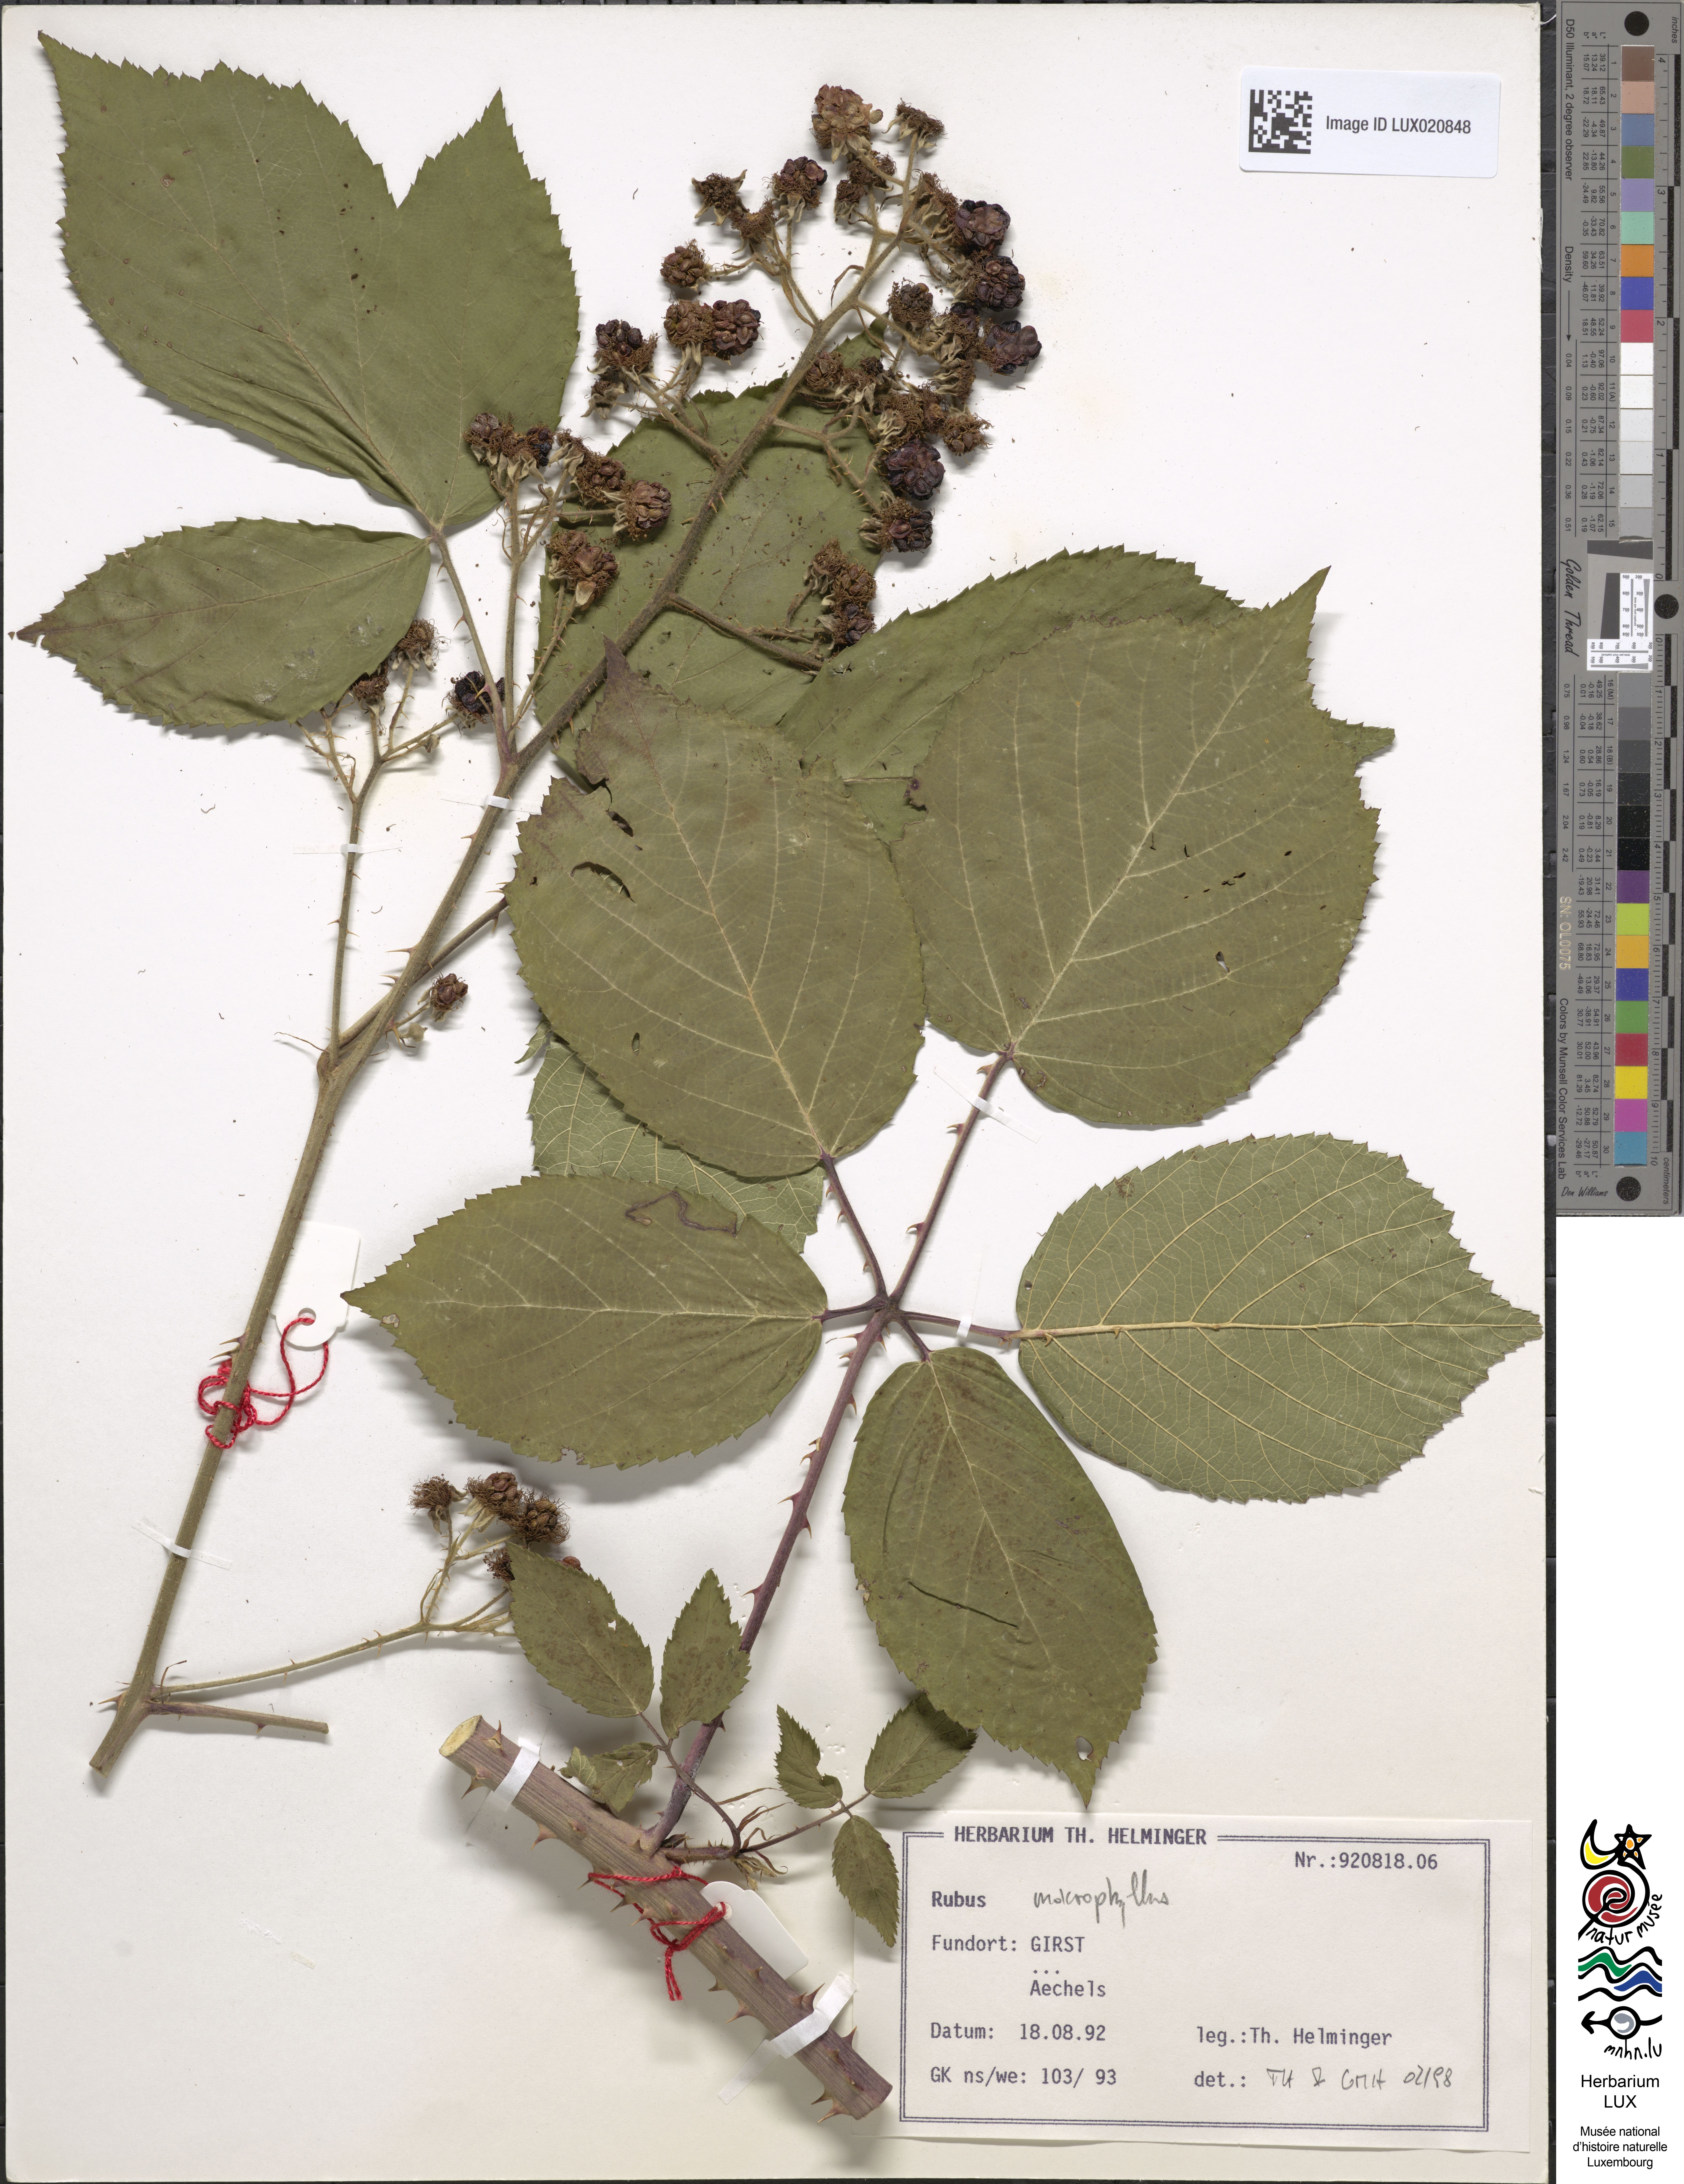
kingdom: Plantae
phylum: Tracheophyta
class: Magnoliopsida
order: Rosales
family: Rosaceae
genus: Rubus
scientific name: Rubus macrophyllus
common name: Largeleaf blackberry
